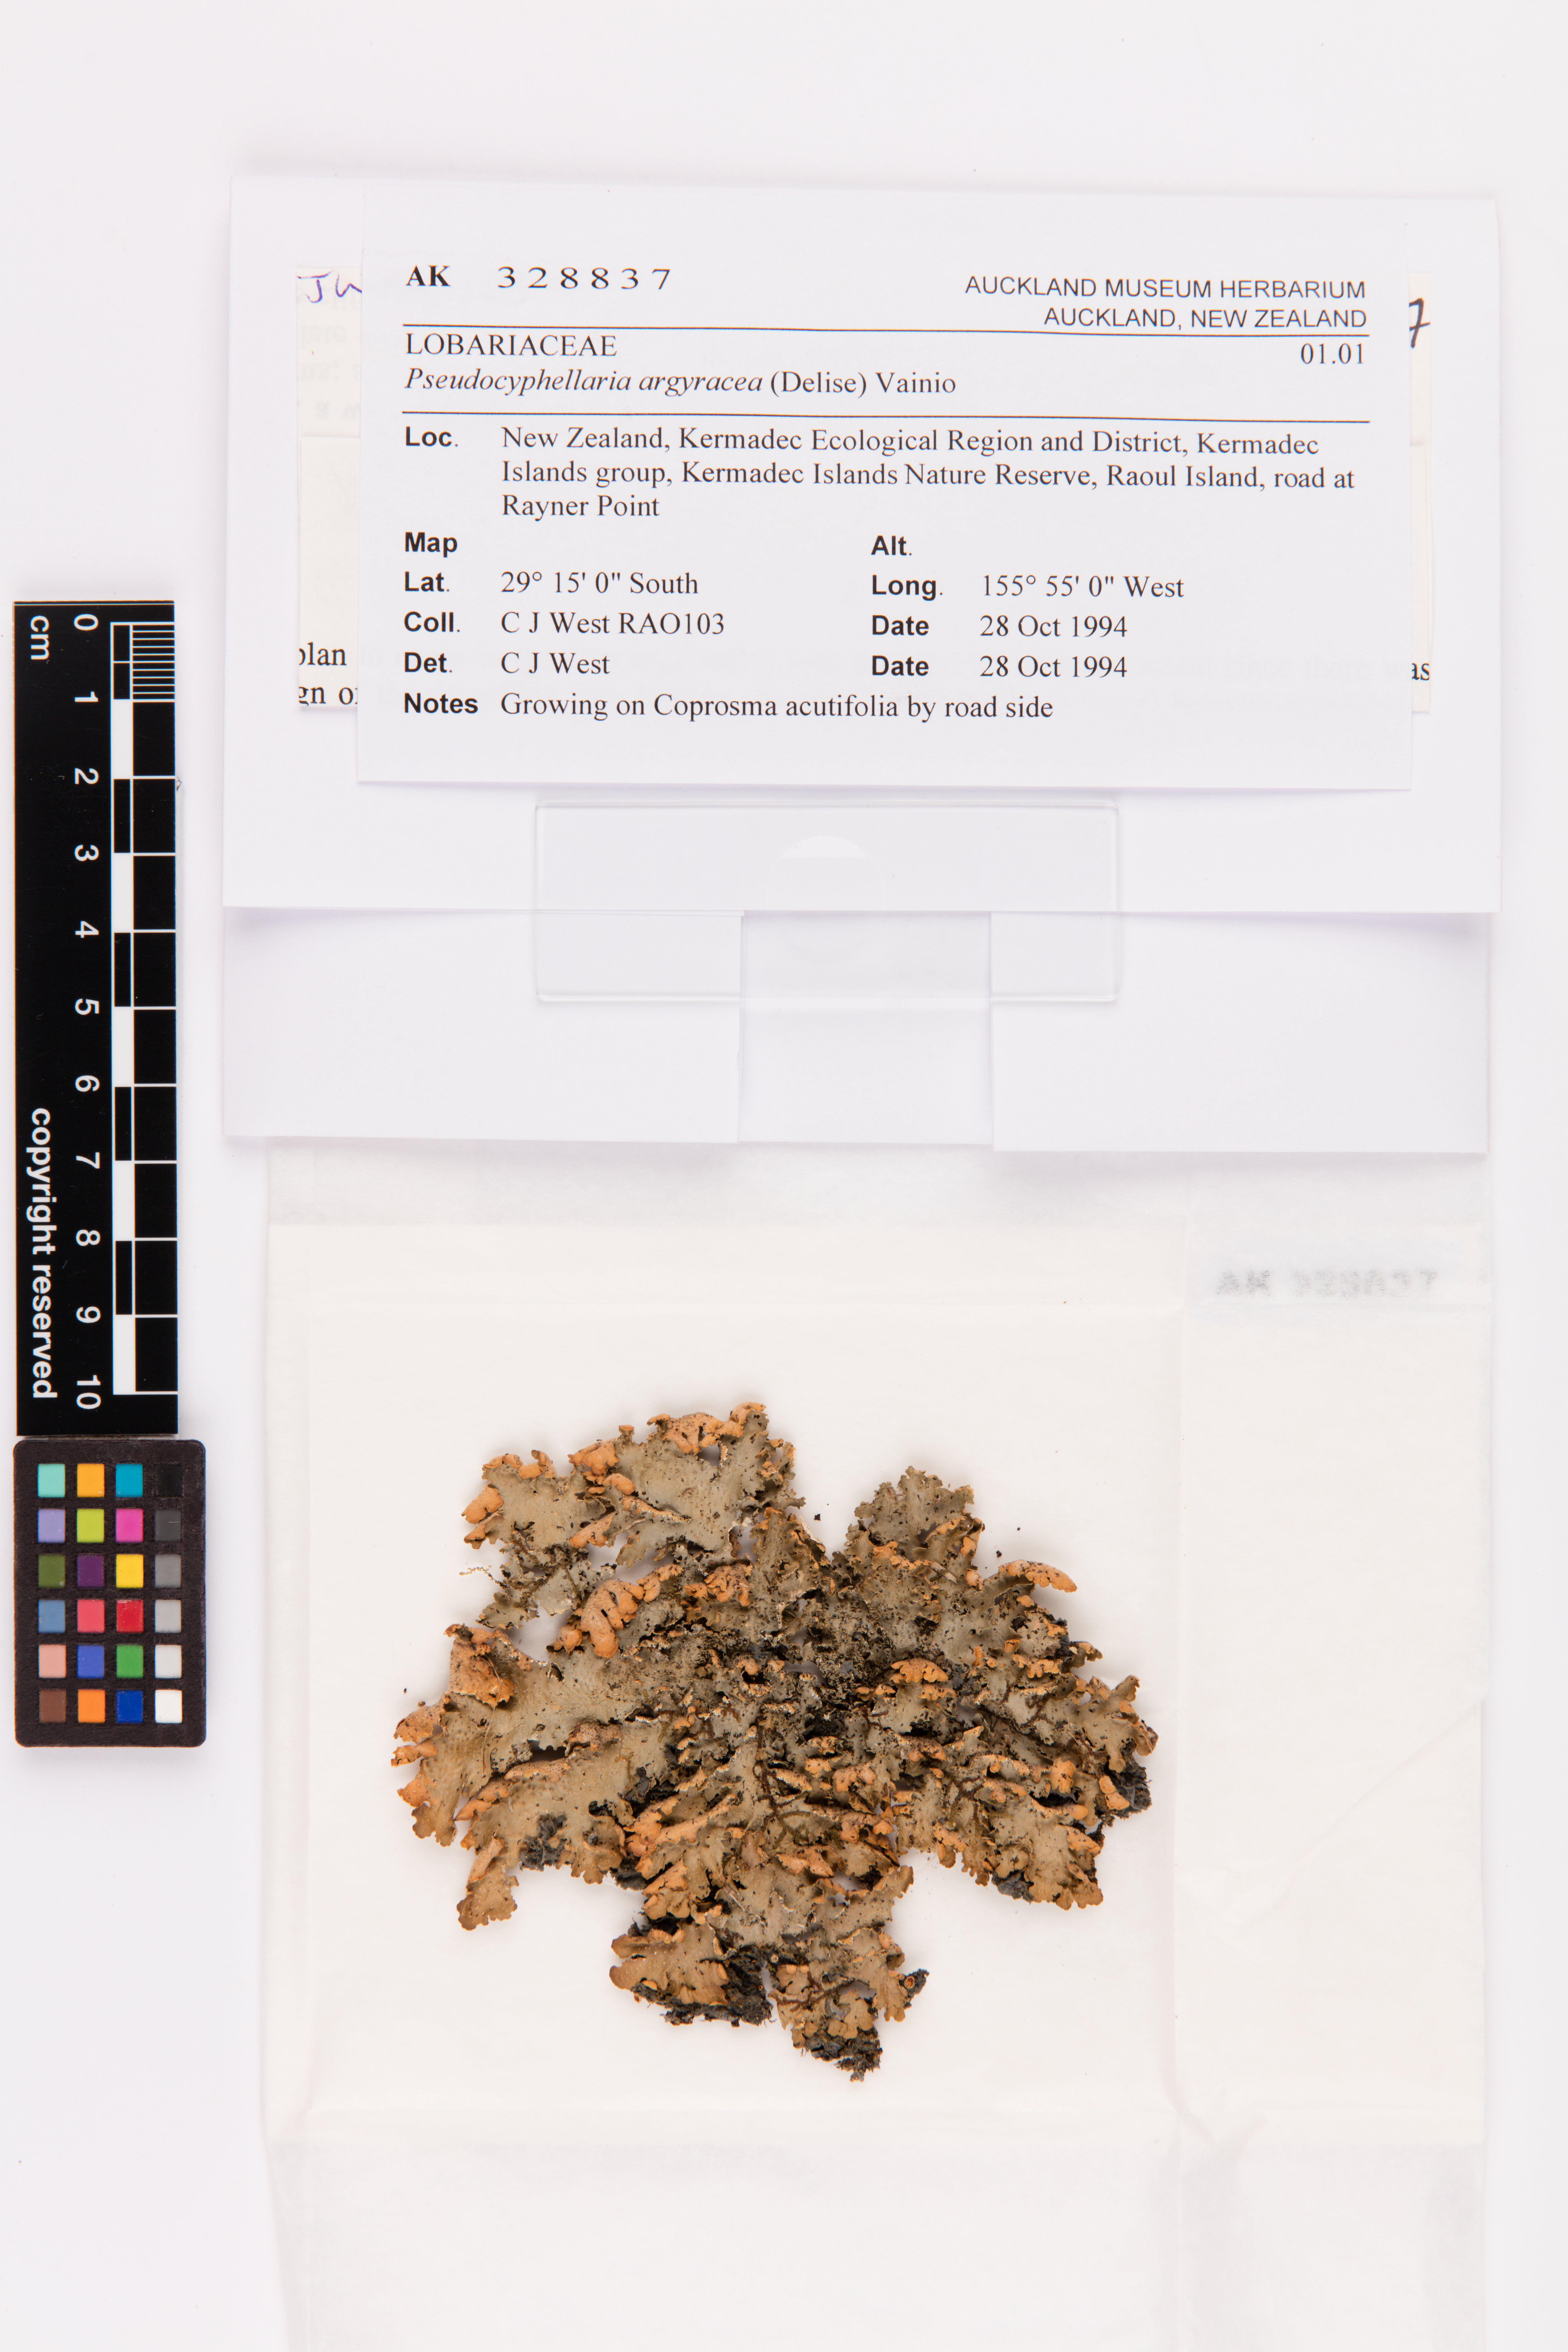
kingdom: Fungi
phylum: Ascomycota
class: Lecanoromycetes
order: Peltigerales
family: Lobariaceae
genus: Pseudocyphellaria
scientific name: Pseudocyphellaria argyracea
